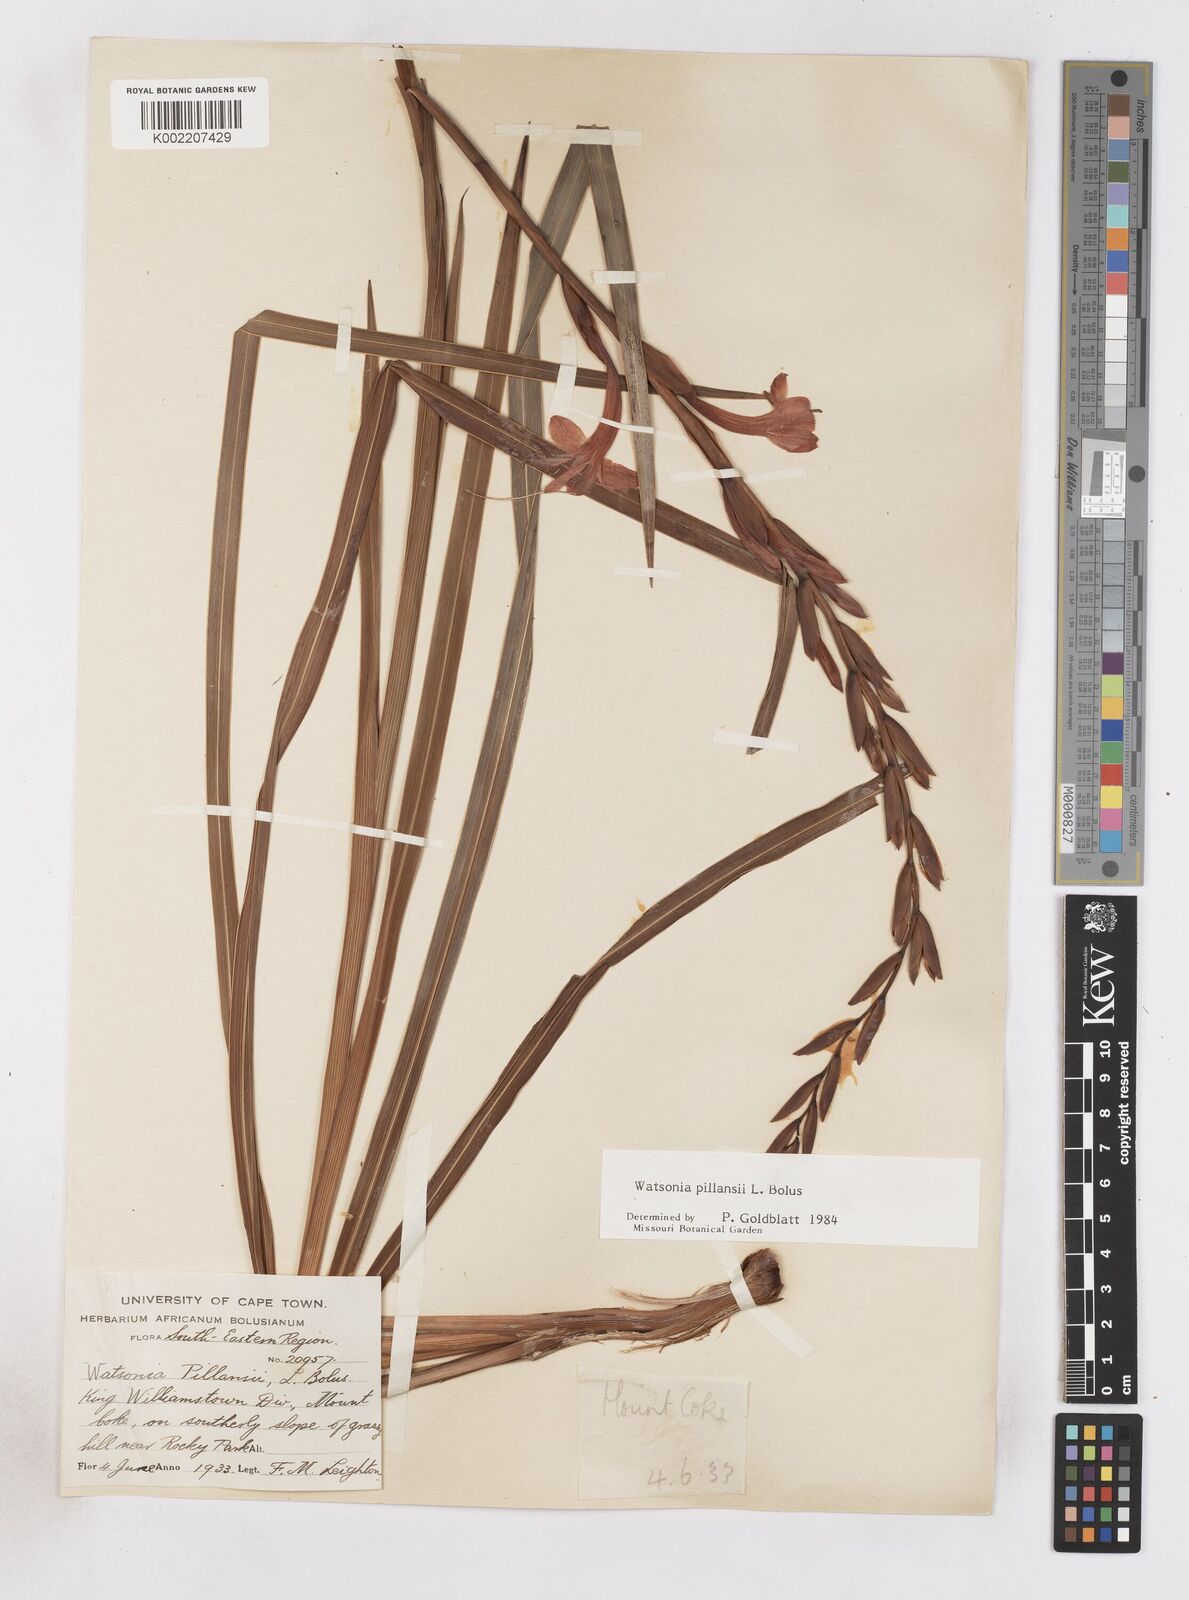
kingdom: Plantae
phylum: Tracheophyta
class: Liliopsida
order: Asparagales
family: Iridaceae
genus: Watsonia
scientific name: Watsonia pillansii
